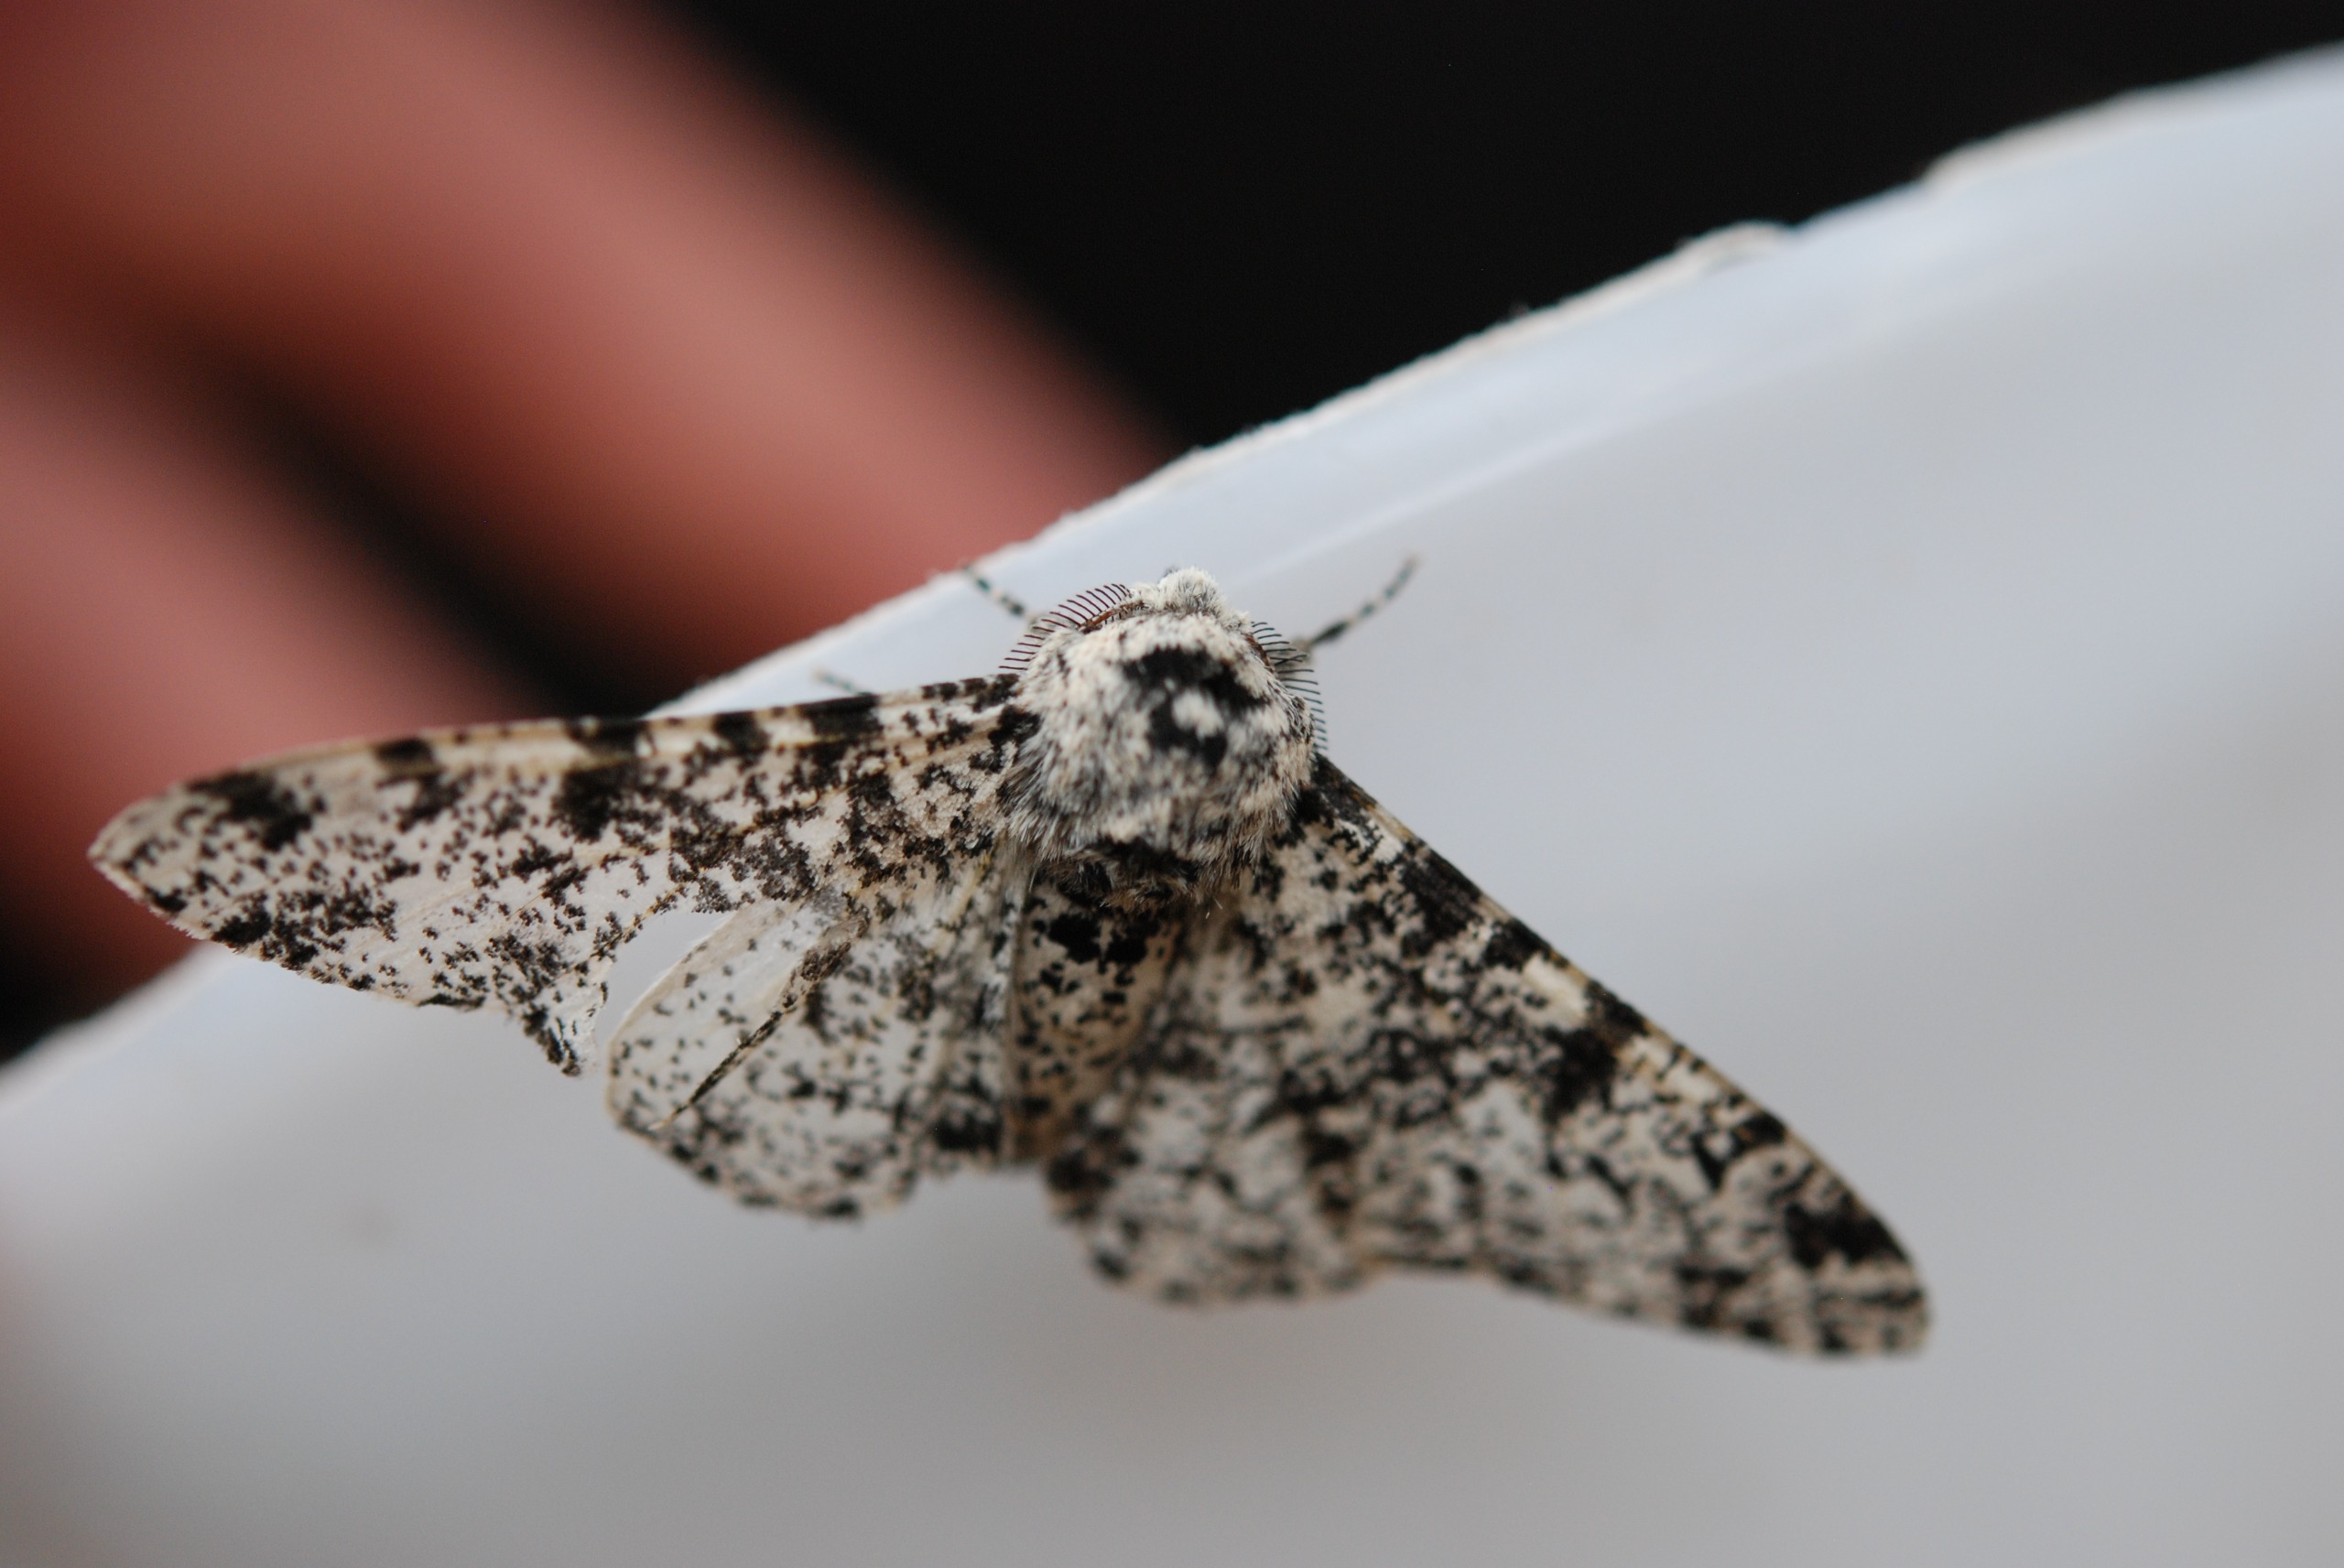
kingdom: Animalia
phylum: Arthropoda
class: Insecta
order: Lepidoptera
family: Geometridae
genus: Biston
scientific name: Biston betularia
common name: Birkemåler
